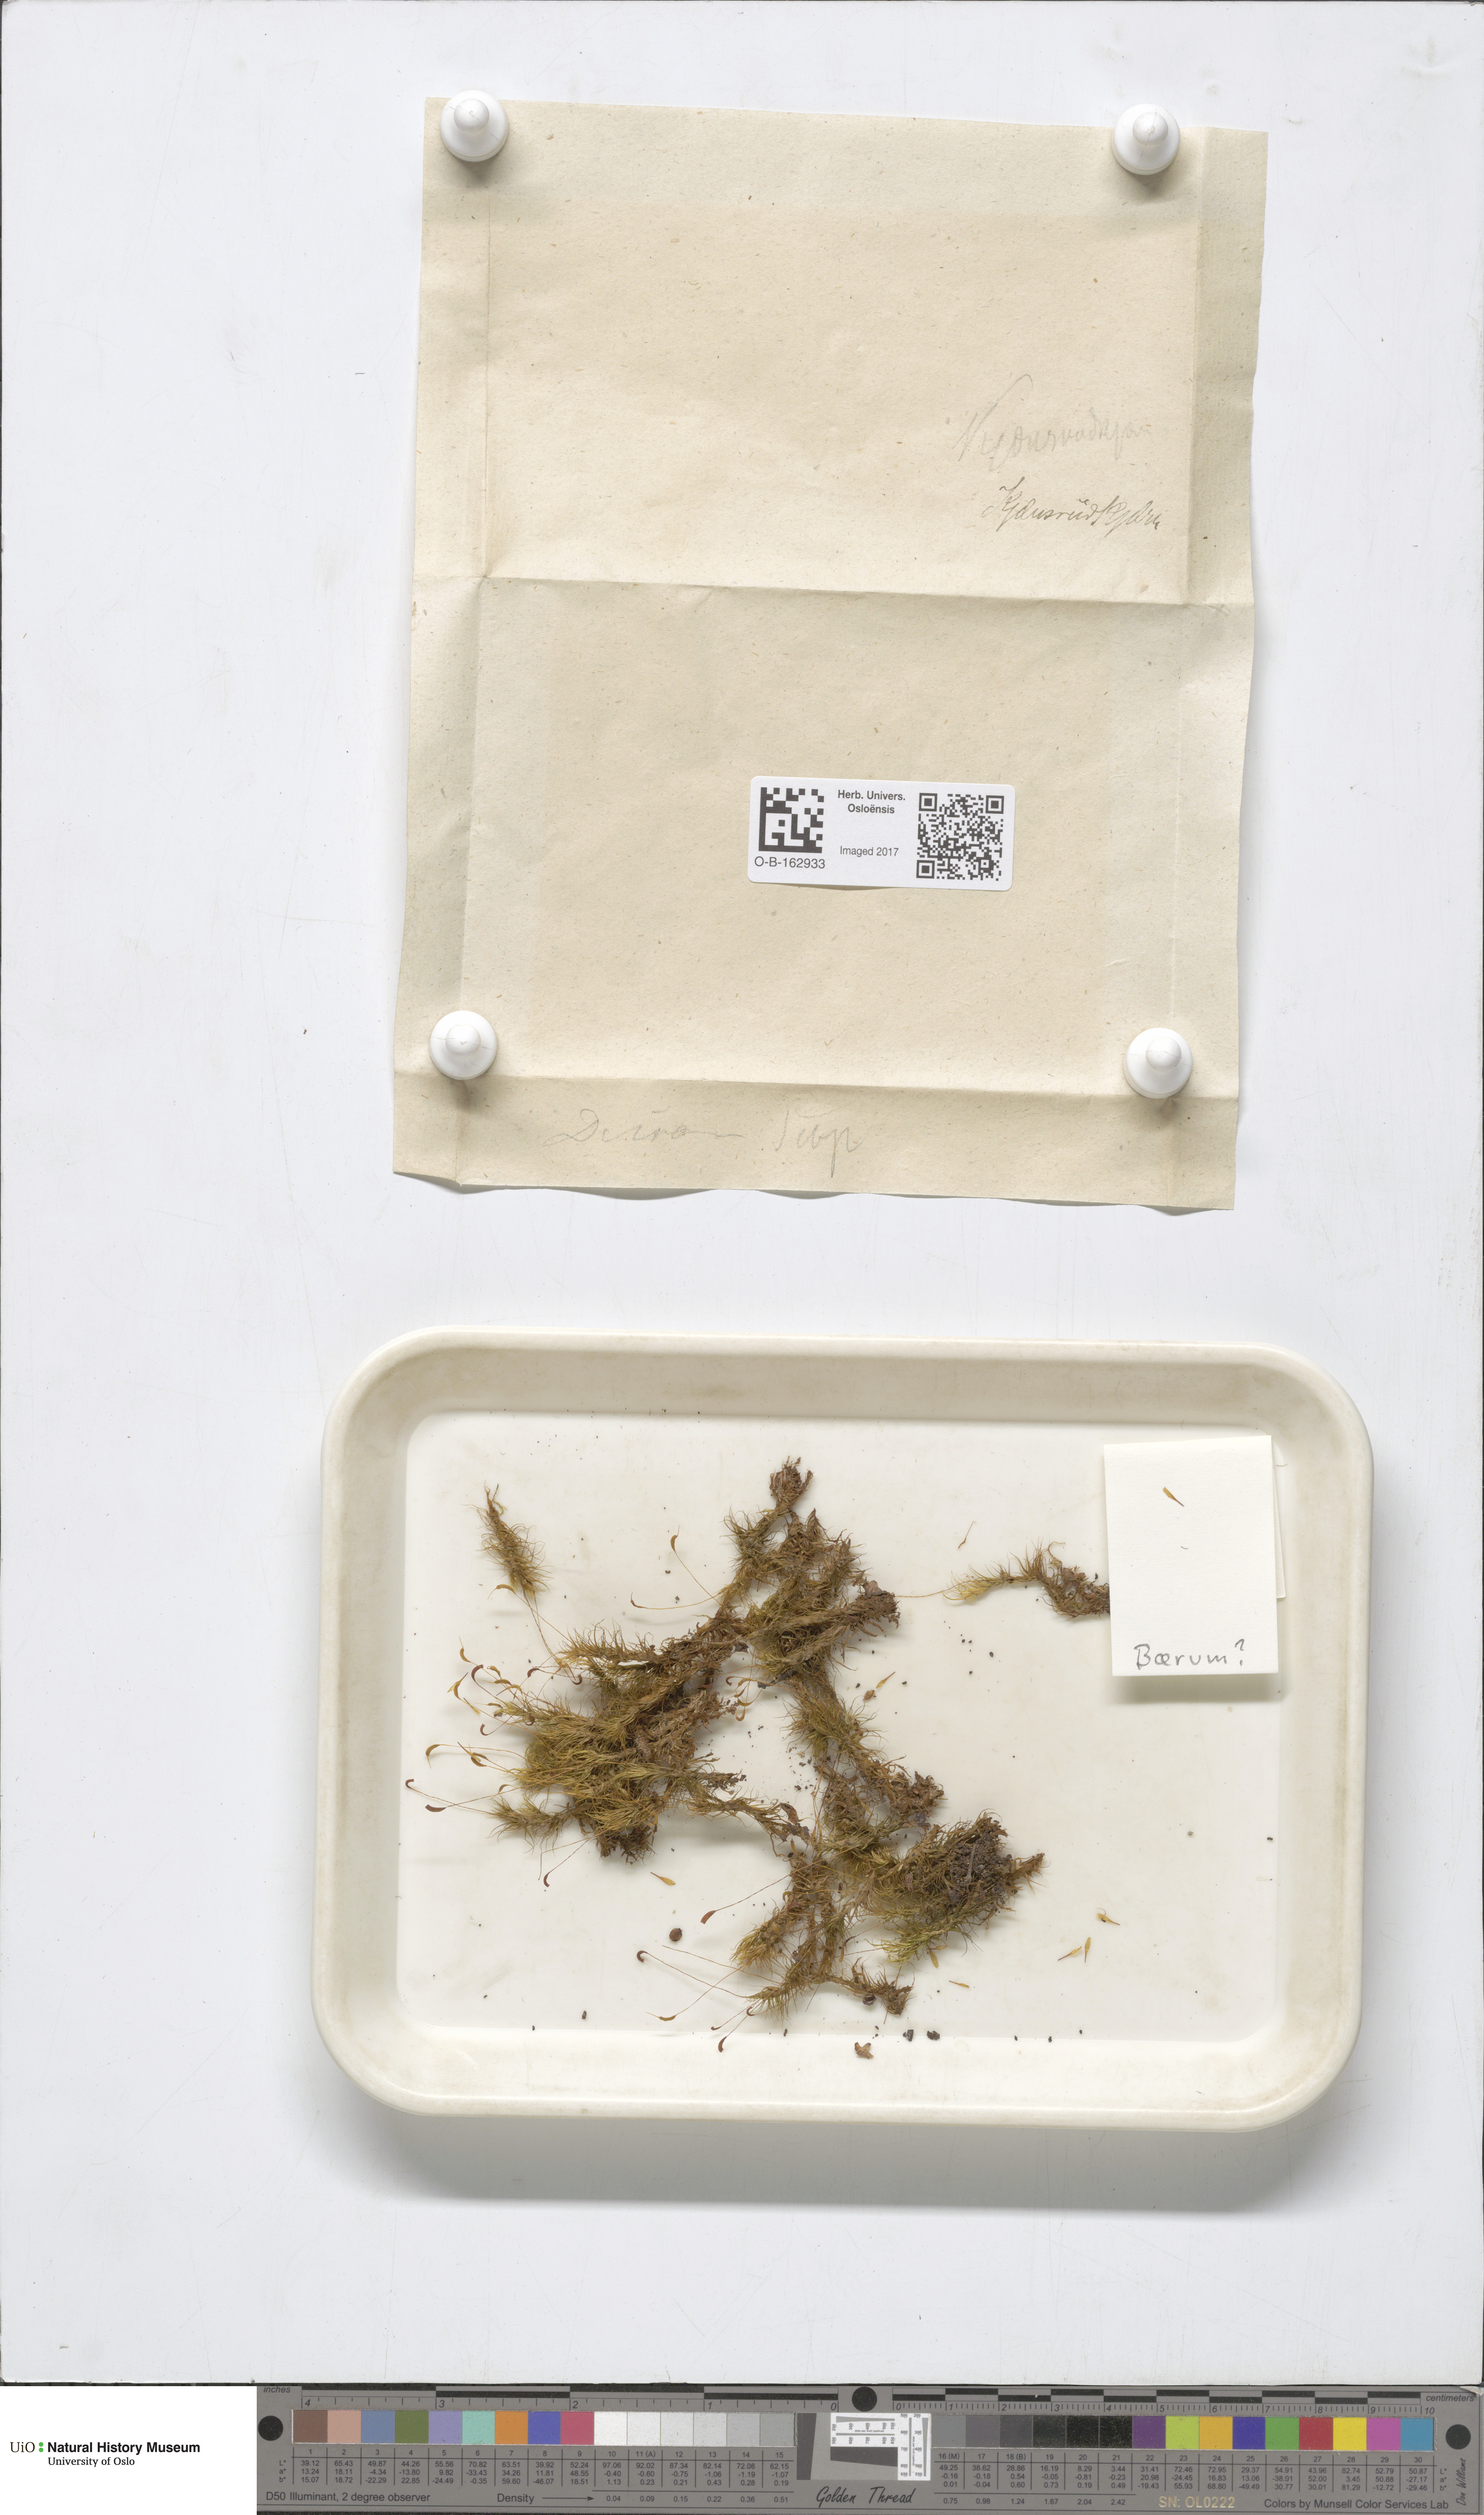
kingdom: Plantae
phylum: Bryophyta
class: Bryopsida
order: Dicranales
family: Dicranaceae
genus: Dicranum
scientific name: Dicranum scoparium
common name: Broom fork-moss
